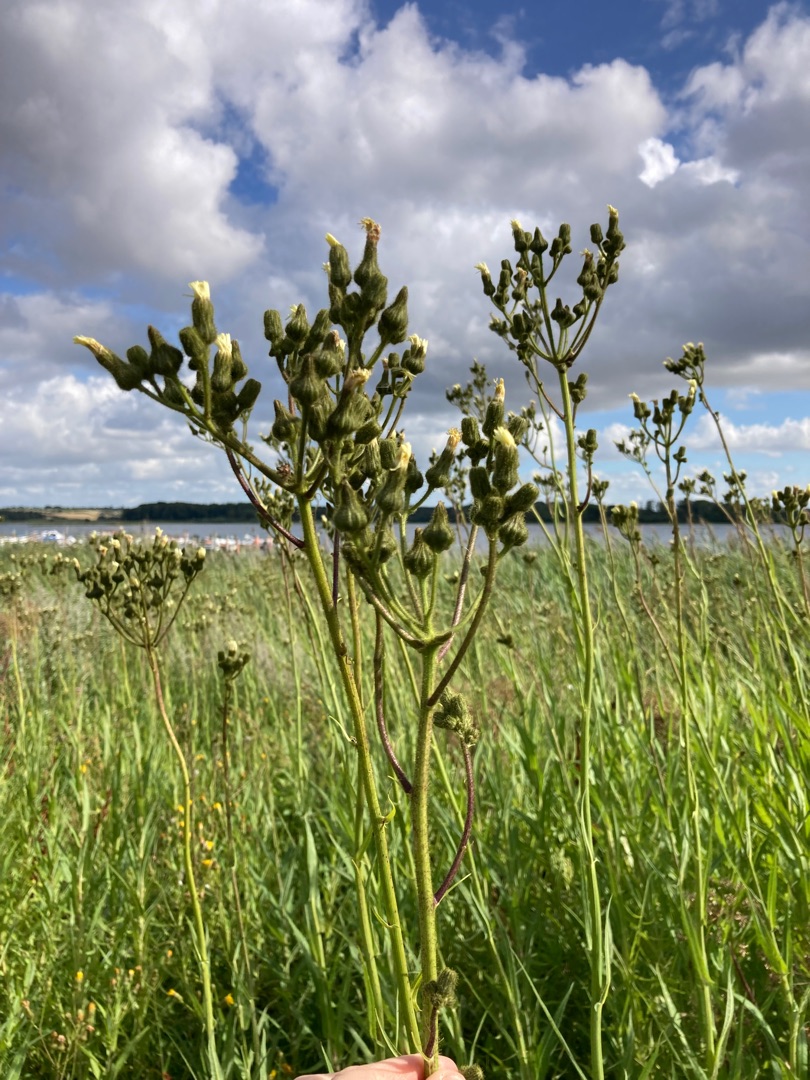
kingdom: Plantae
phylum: Tracheophyta
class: Magnoliopsida
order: Asterales
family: Asteraceae
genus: Sonchus
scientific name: Sonchus palustris
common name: Kær-svinemælk
